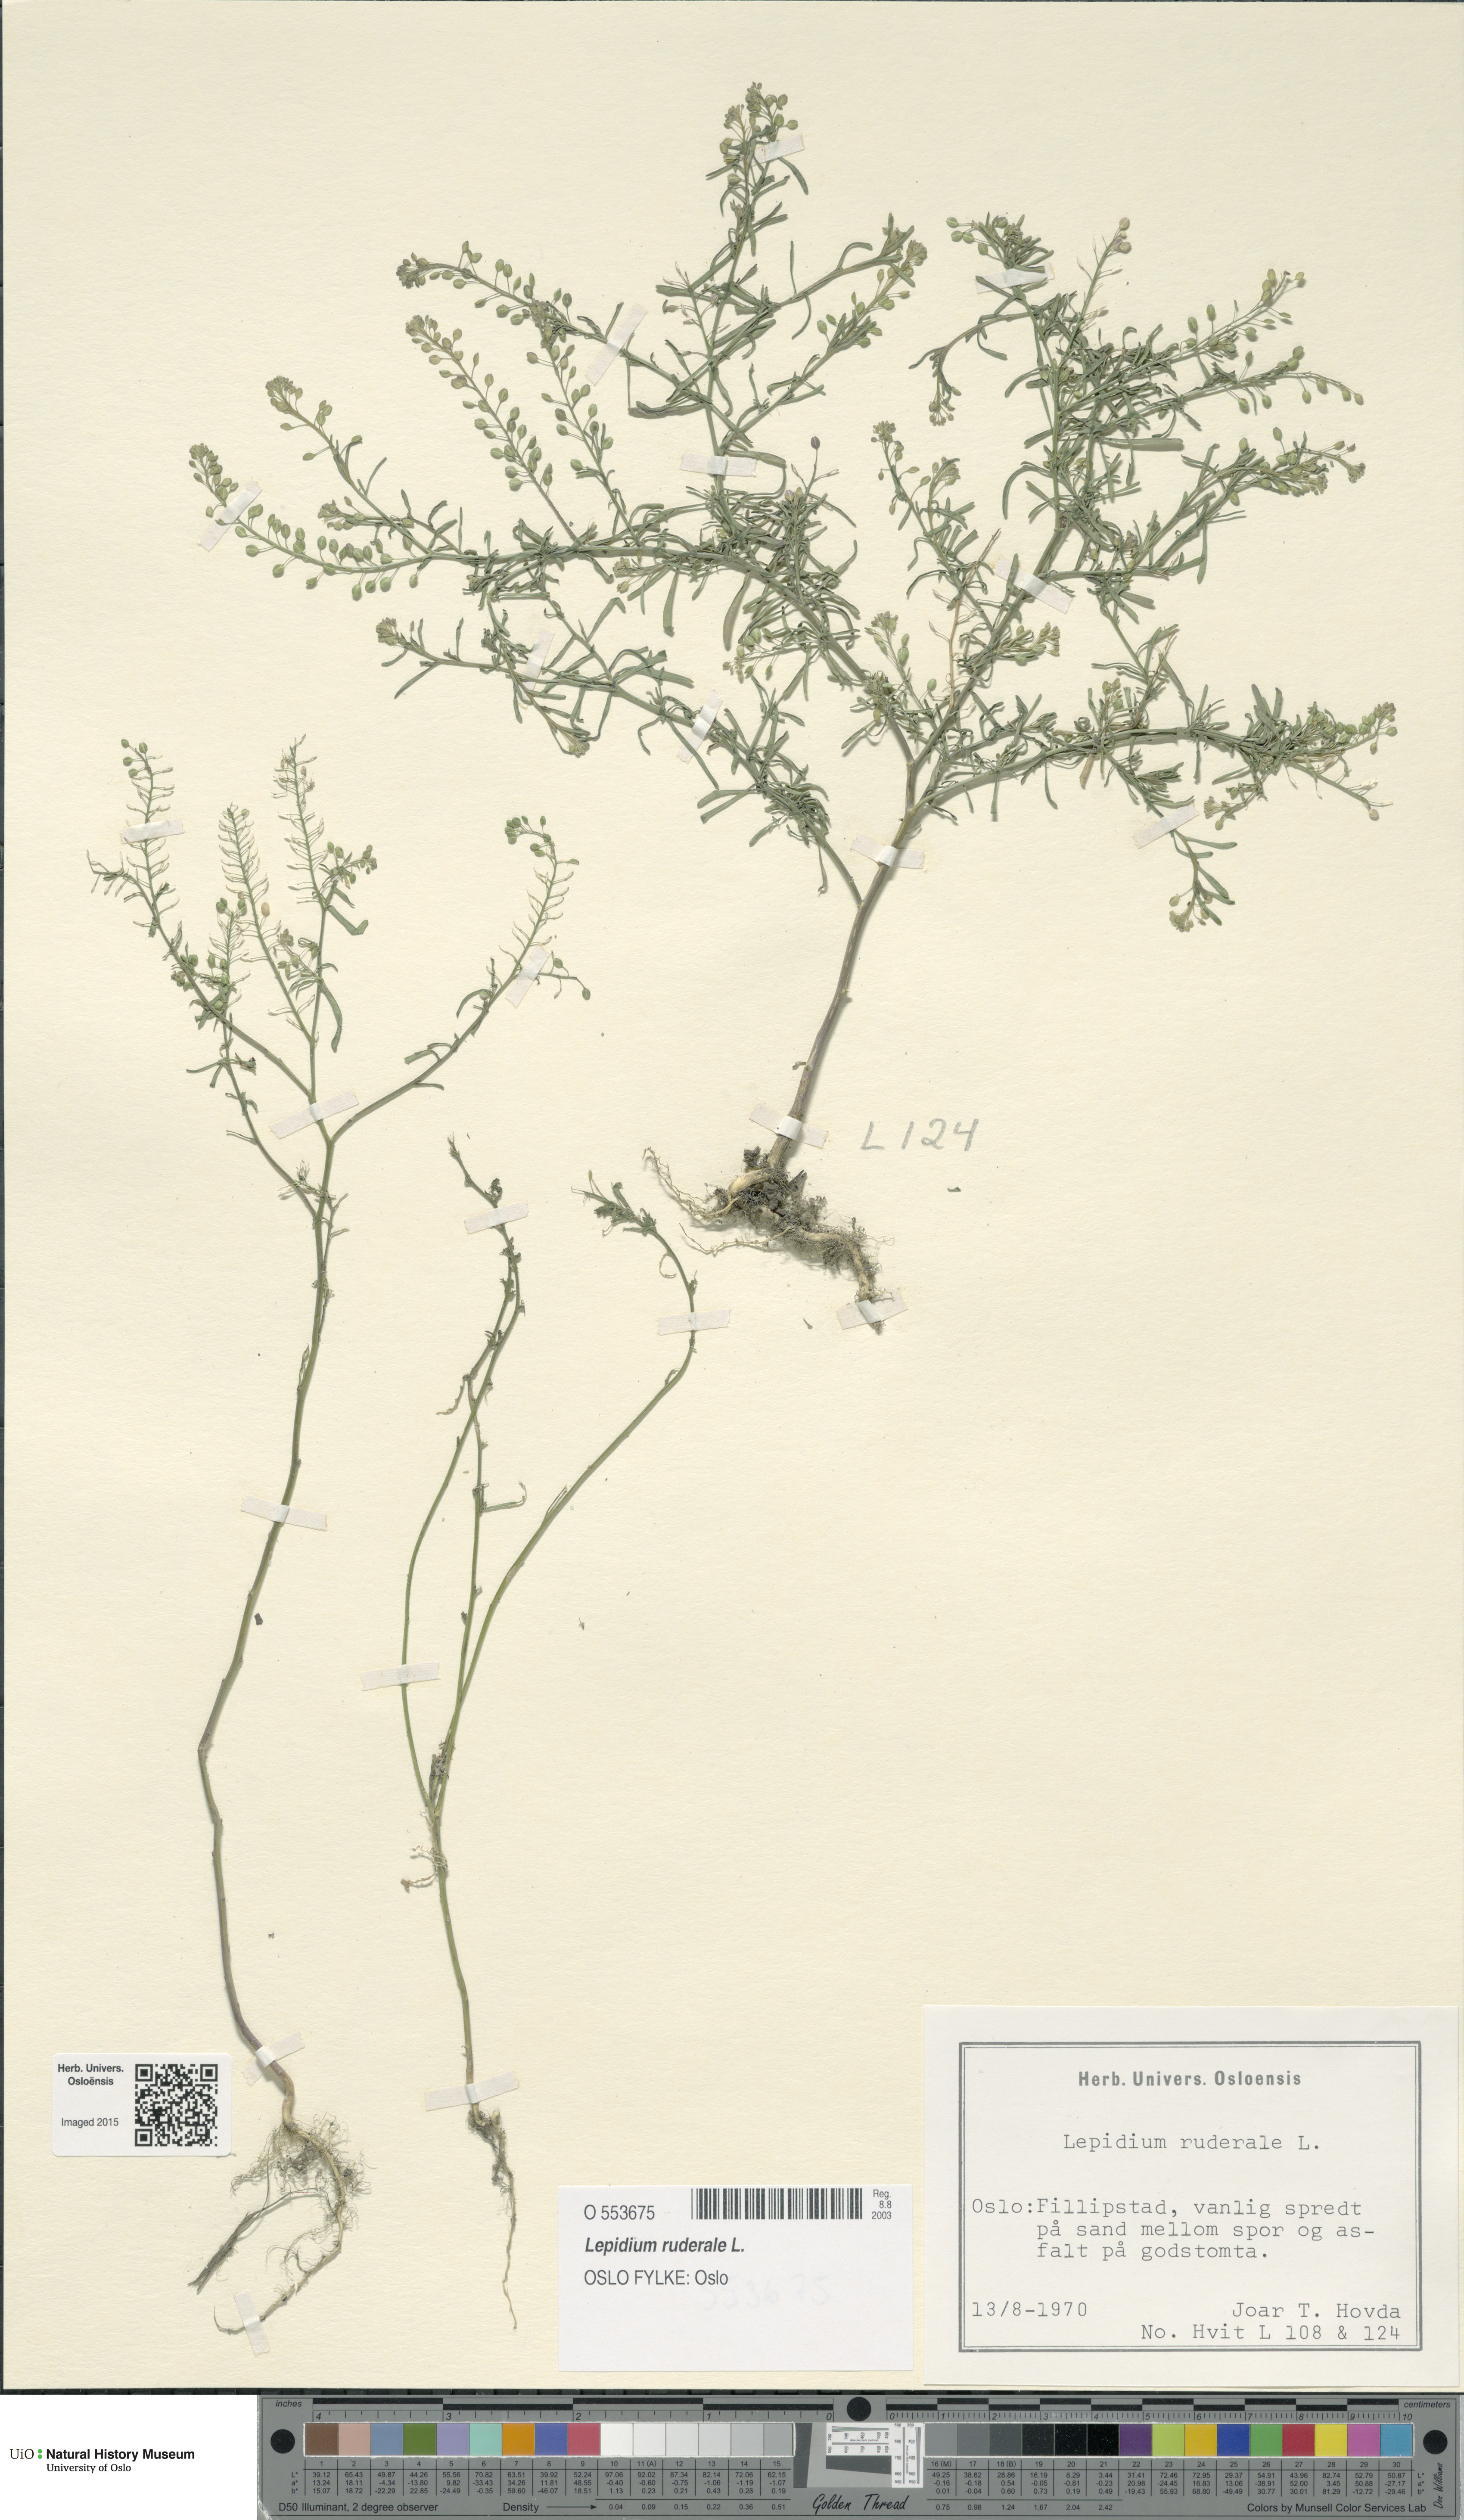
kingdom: Plantae
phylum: Tracheophyta
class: Magnoliopsida
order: Brassicales
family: Brassicaceae
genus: Lepidium
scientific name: Lepidium ruderale
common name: Narrow-leaved pepperwort
